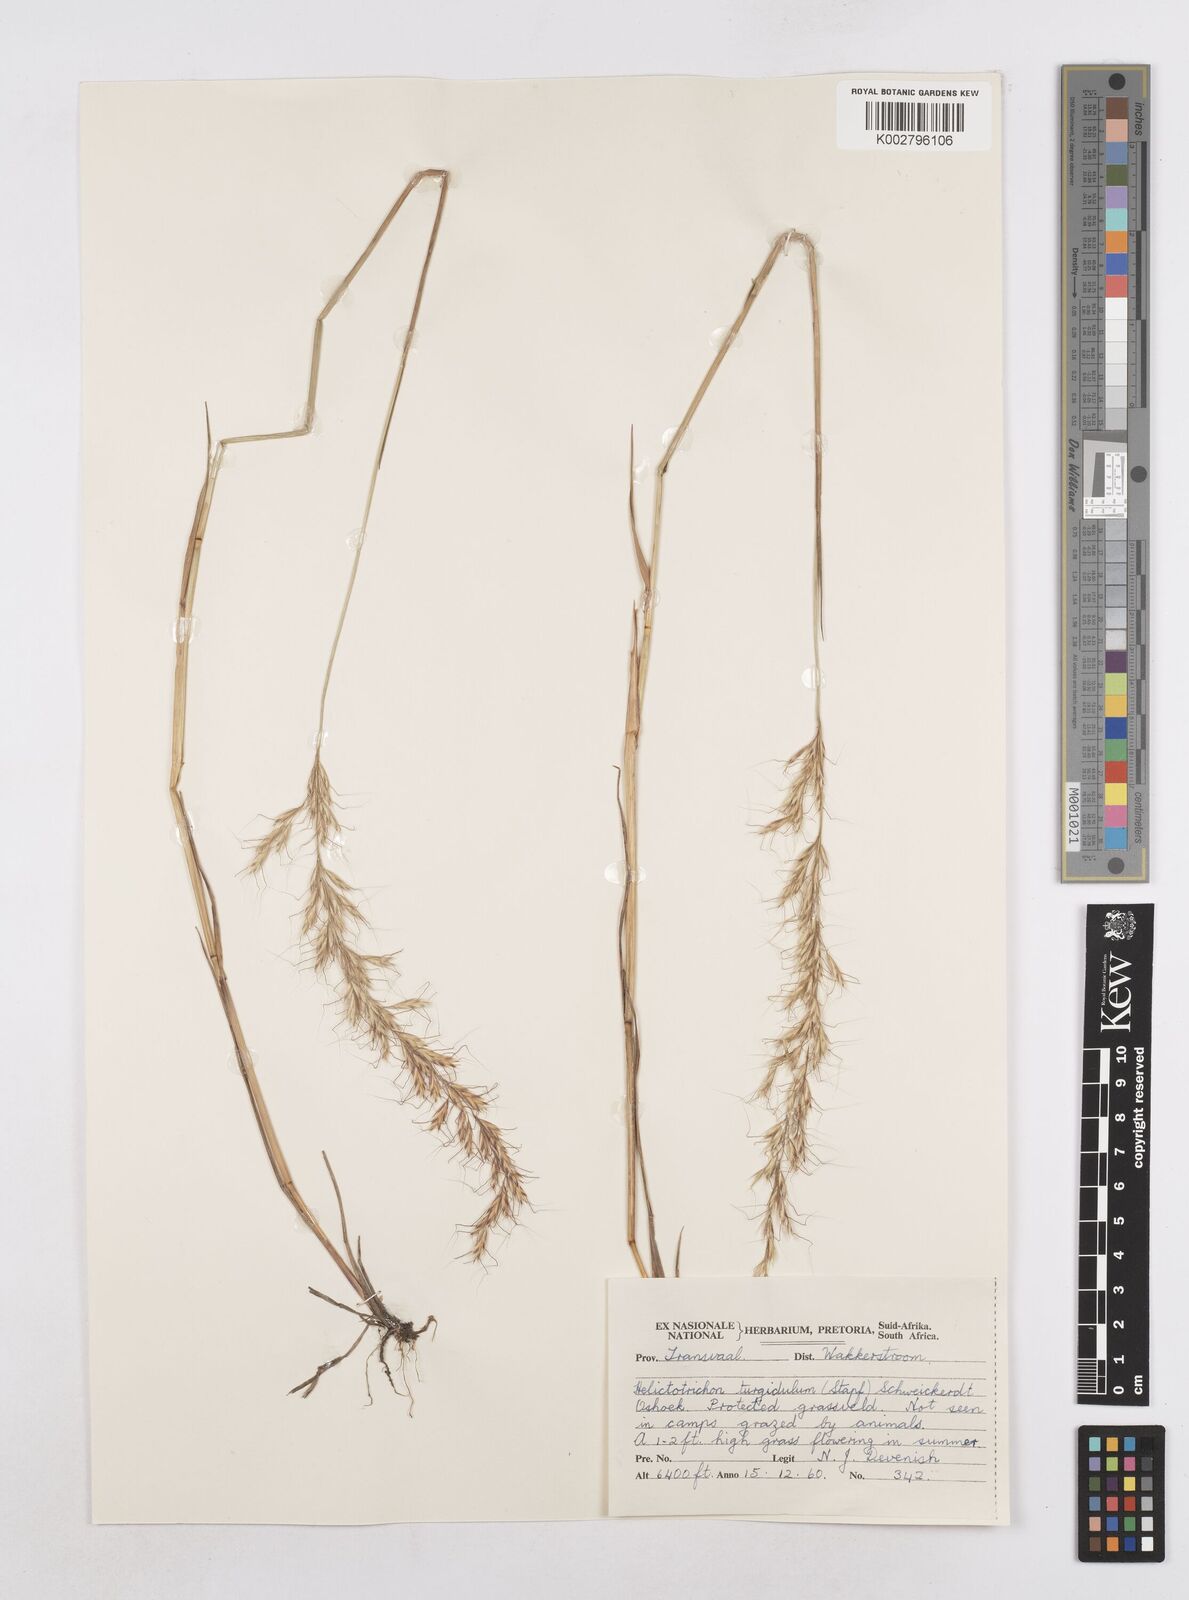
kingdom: Plantae
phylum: Tracheophyta
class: Liliopsida
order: Poales
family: Poaceae
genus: Trisetopsis
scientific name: Trisetopsis imberbis
